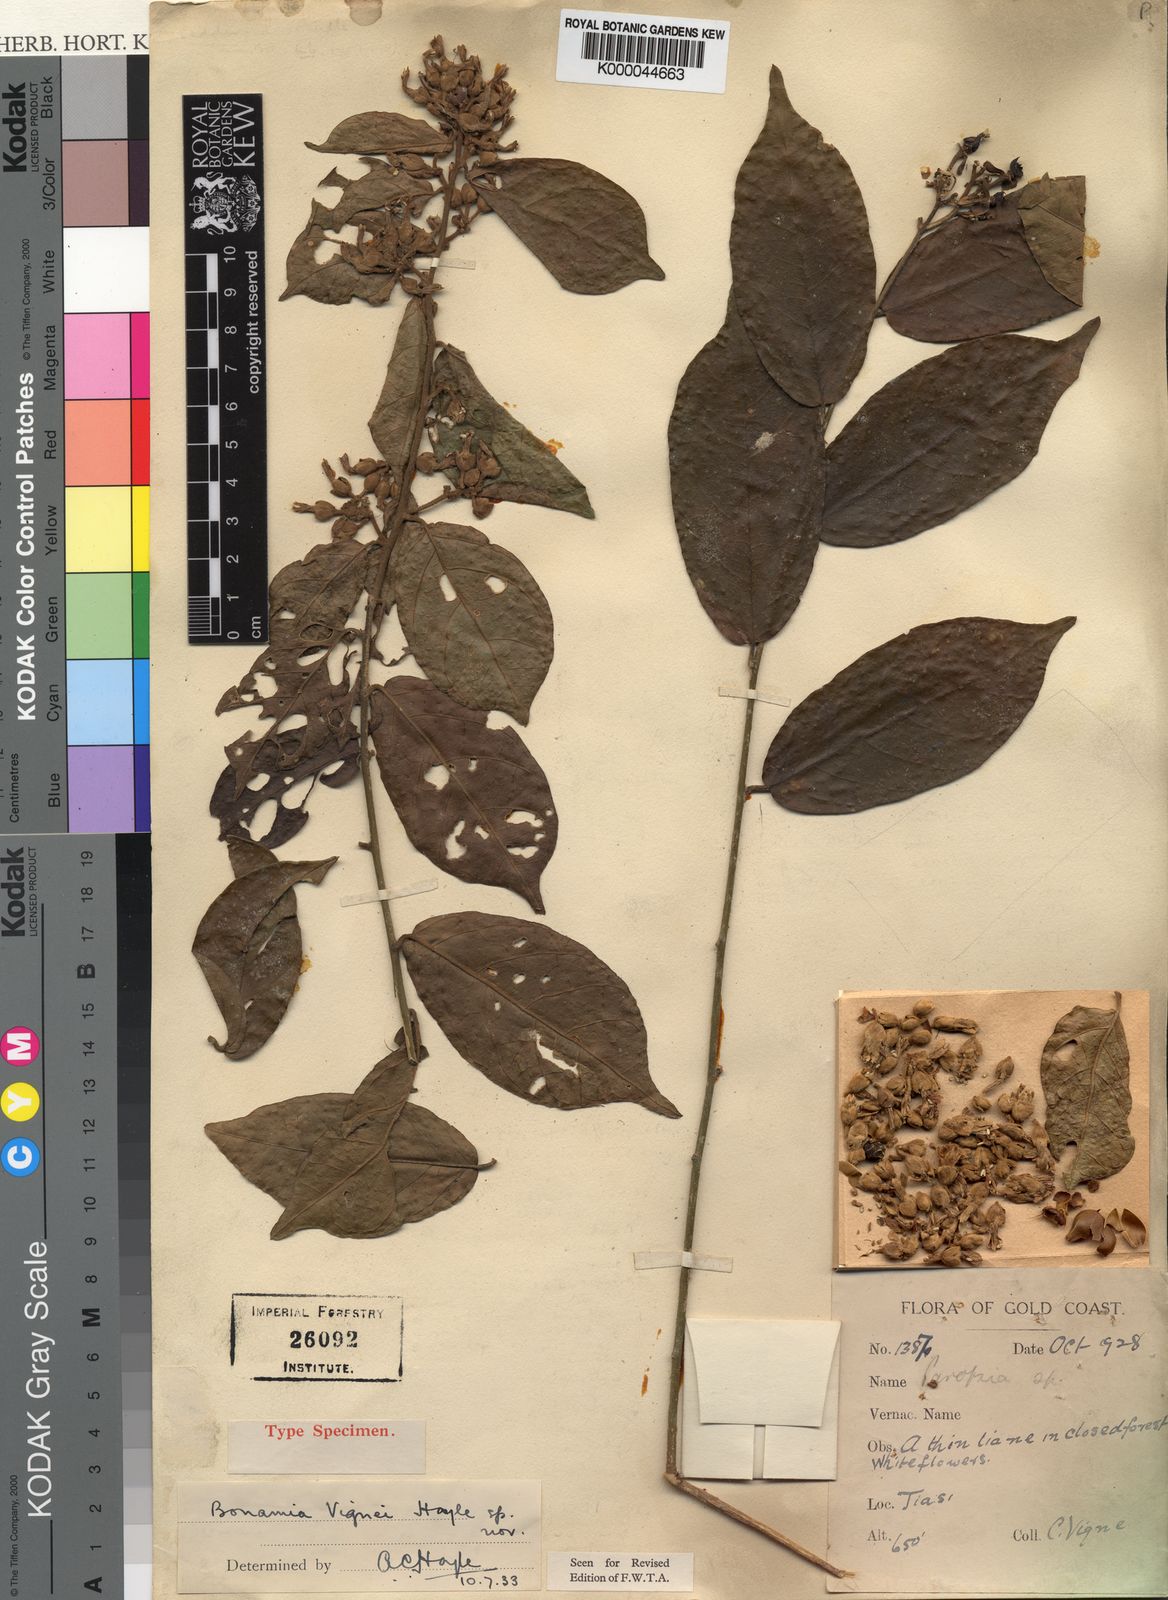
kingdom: Plantae
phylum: Tracheophyta
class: Magnoliopsida
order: Solanales
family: Convolvulaceae
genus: Bonamia
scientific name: Bonamia longitubulosa
